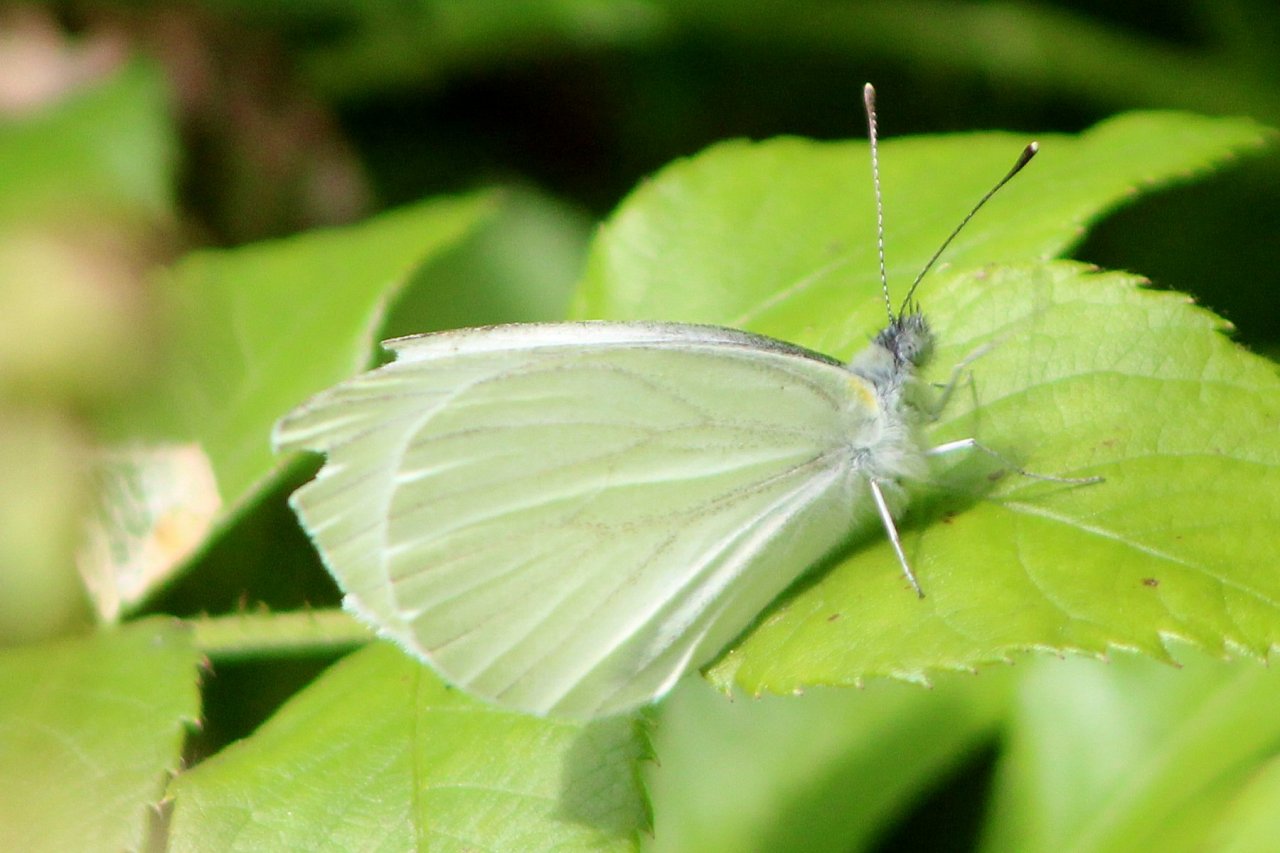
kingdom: Animalia
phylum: Arthropoda
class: Insecta
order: Lepidoptera
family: Pieridae
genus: Pieris
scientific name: Pieris oleracea
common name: Mustard White
